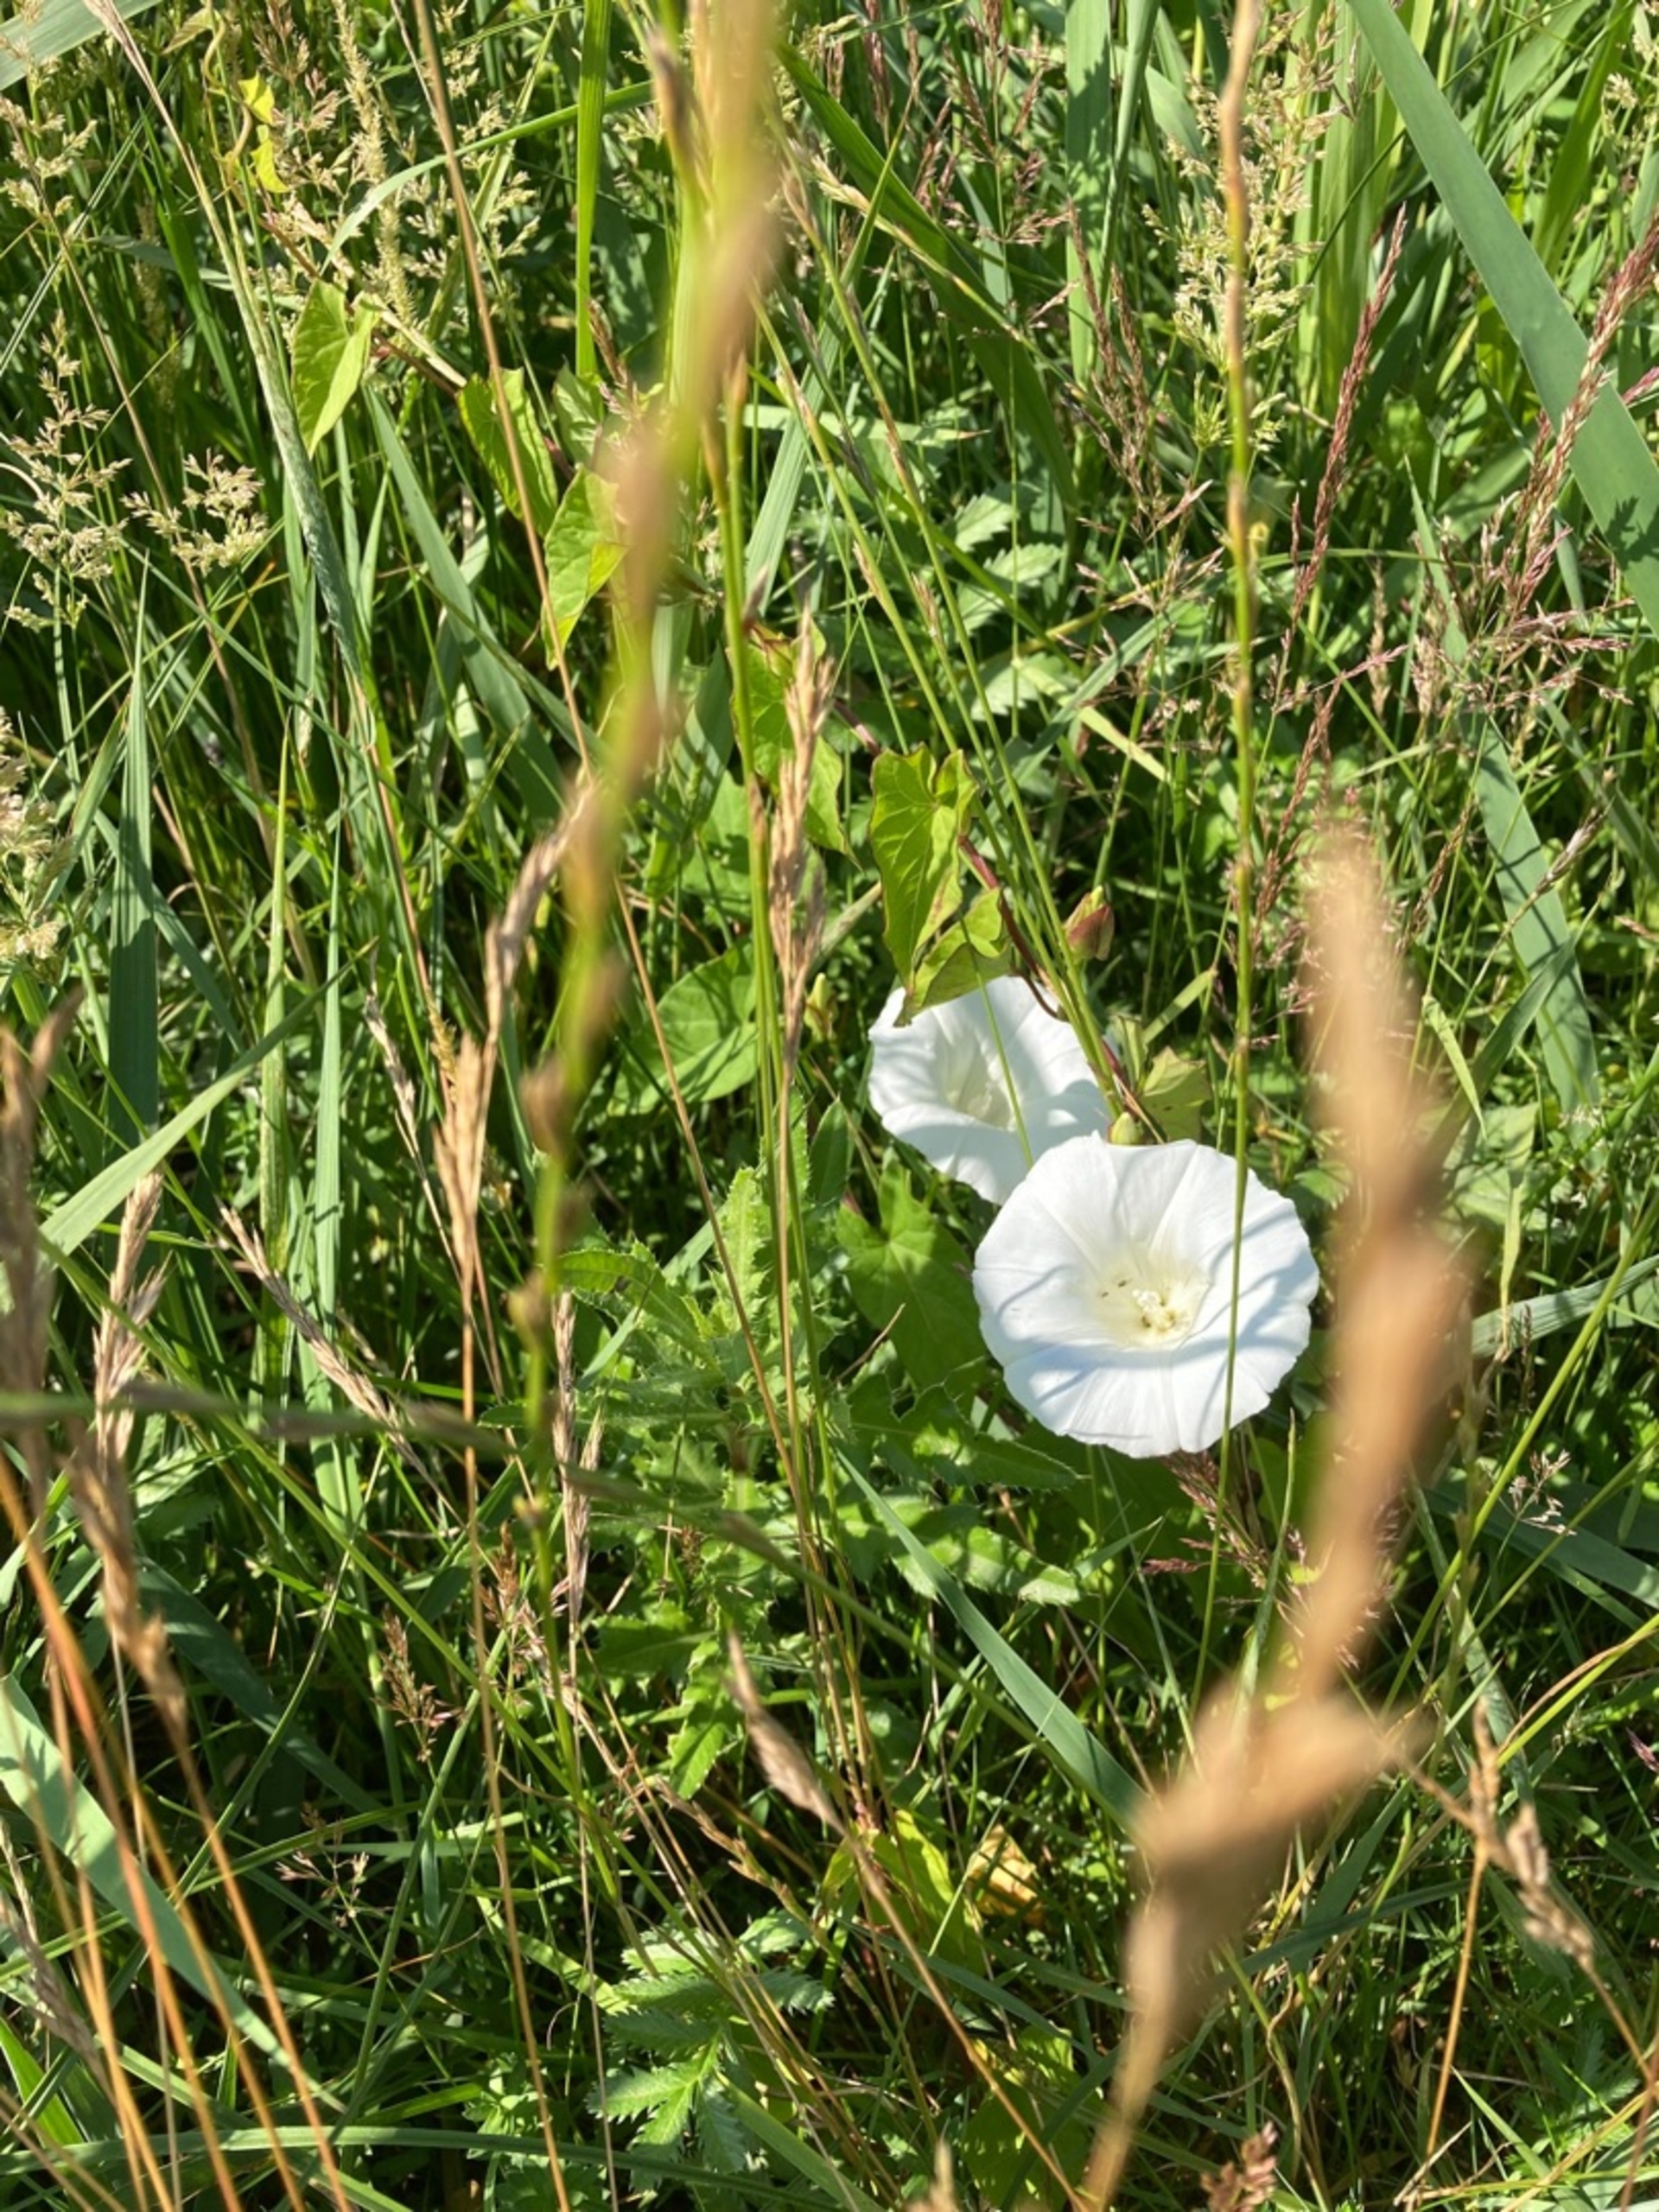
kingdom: Plantae
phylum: Tracheophyta
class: Magnoliopsida
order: Solanales
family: Convolvulaceae
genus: Calystegia
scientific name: Calystegia sepium
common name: Gærde-snerle
